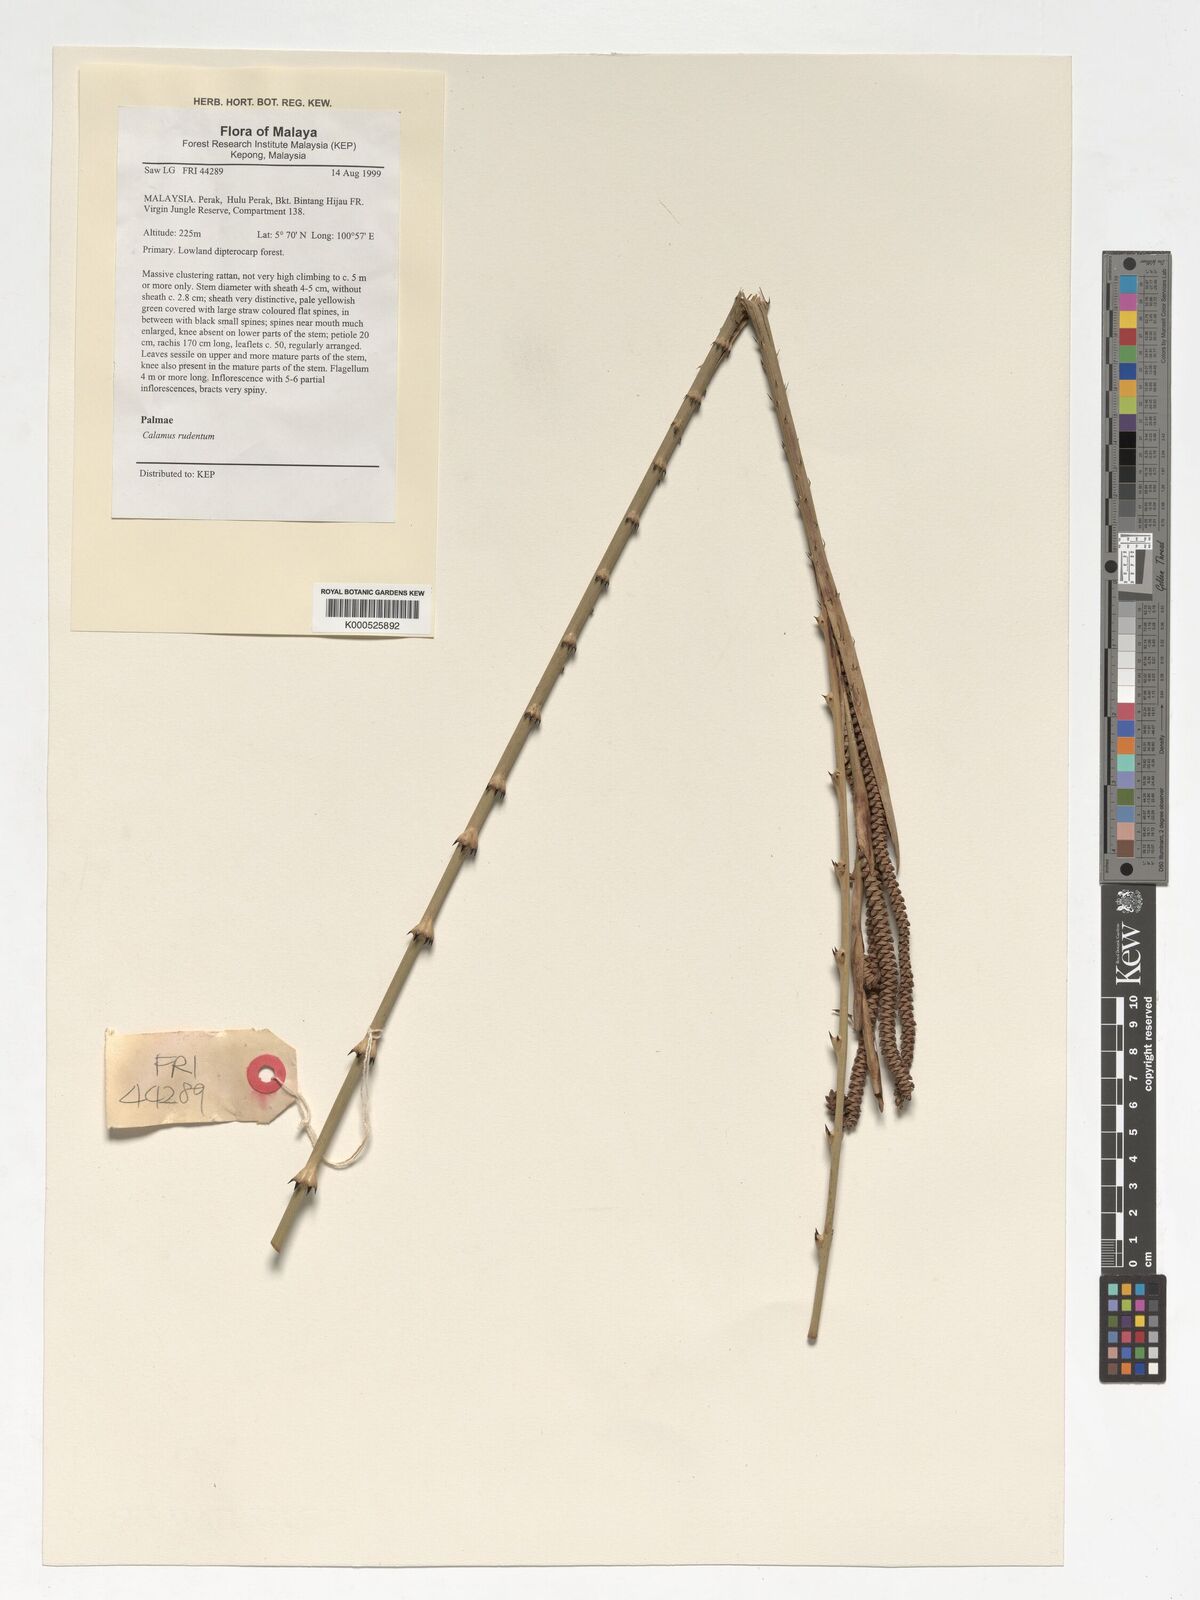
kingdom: Plantae
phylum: Tracheophyta
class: Liliopsida
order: Arecales
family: Arecaceae
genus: Calamus
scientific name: Calamus rudentum
